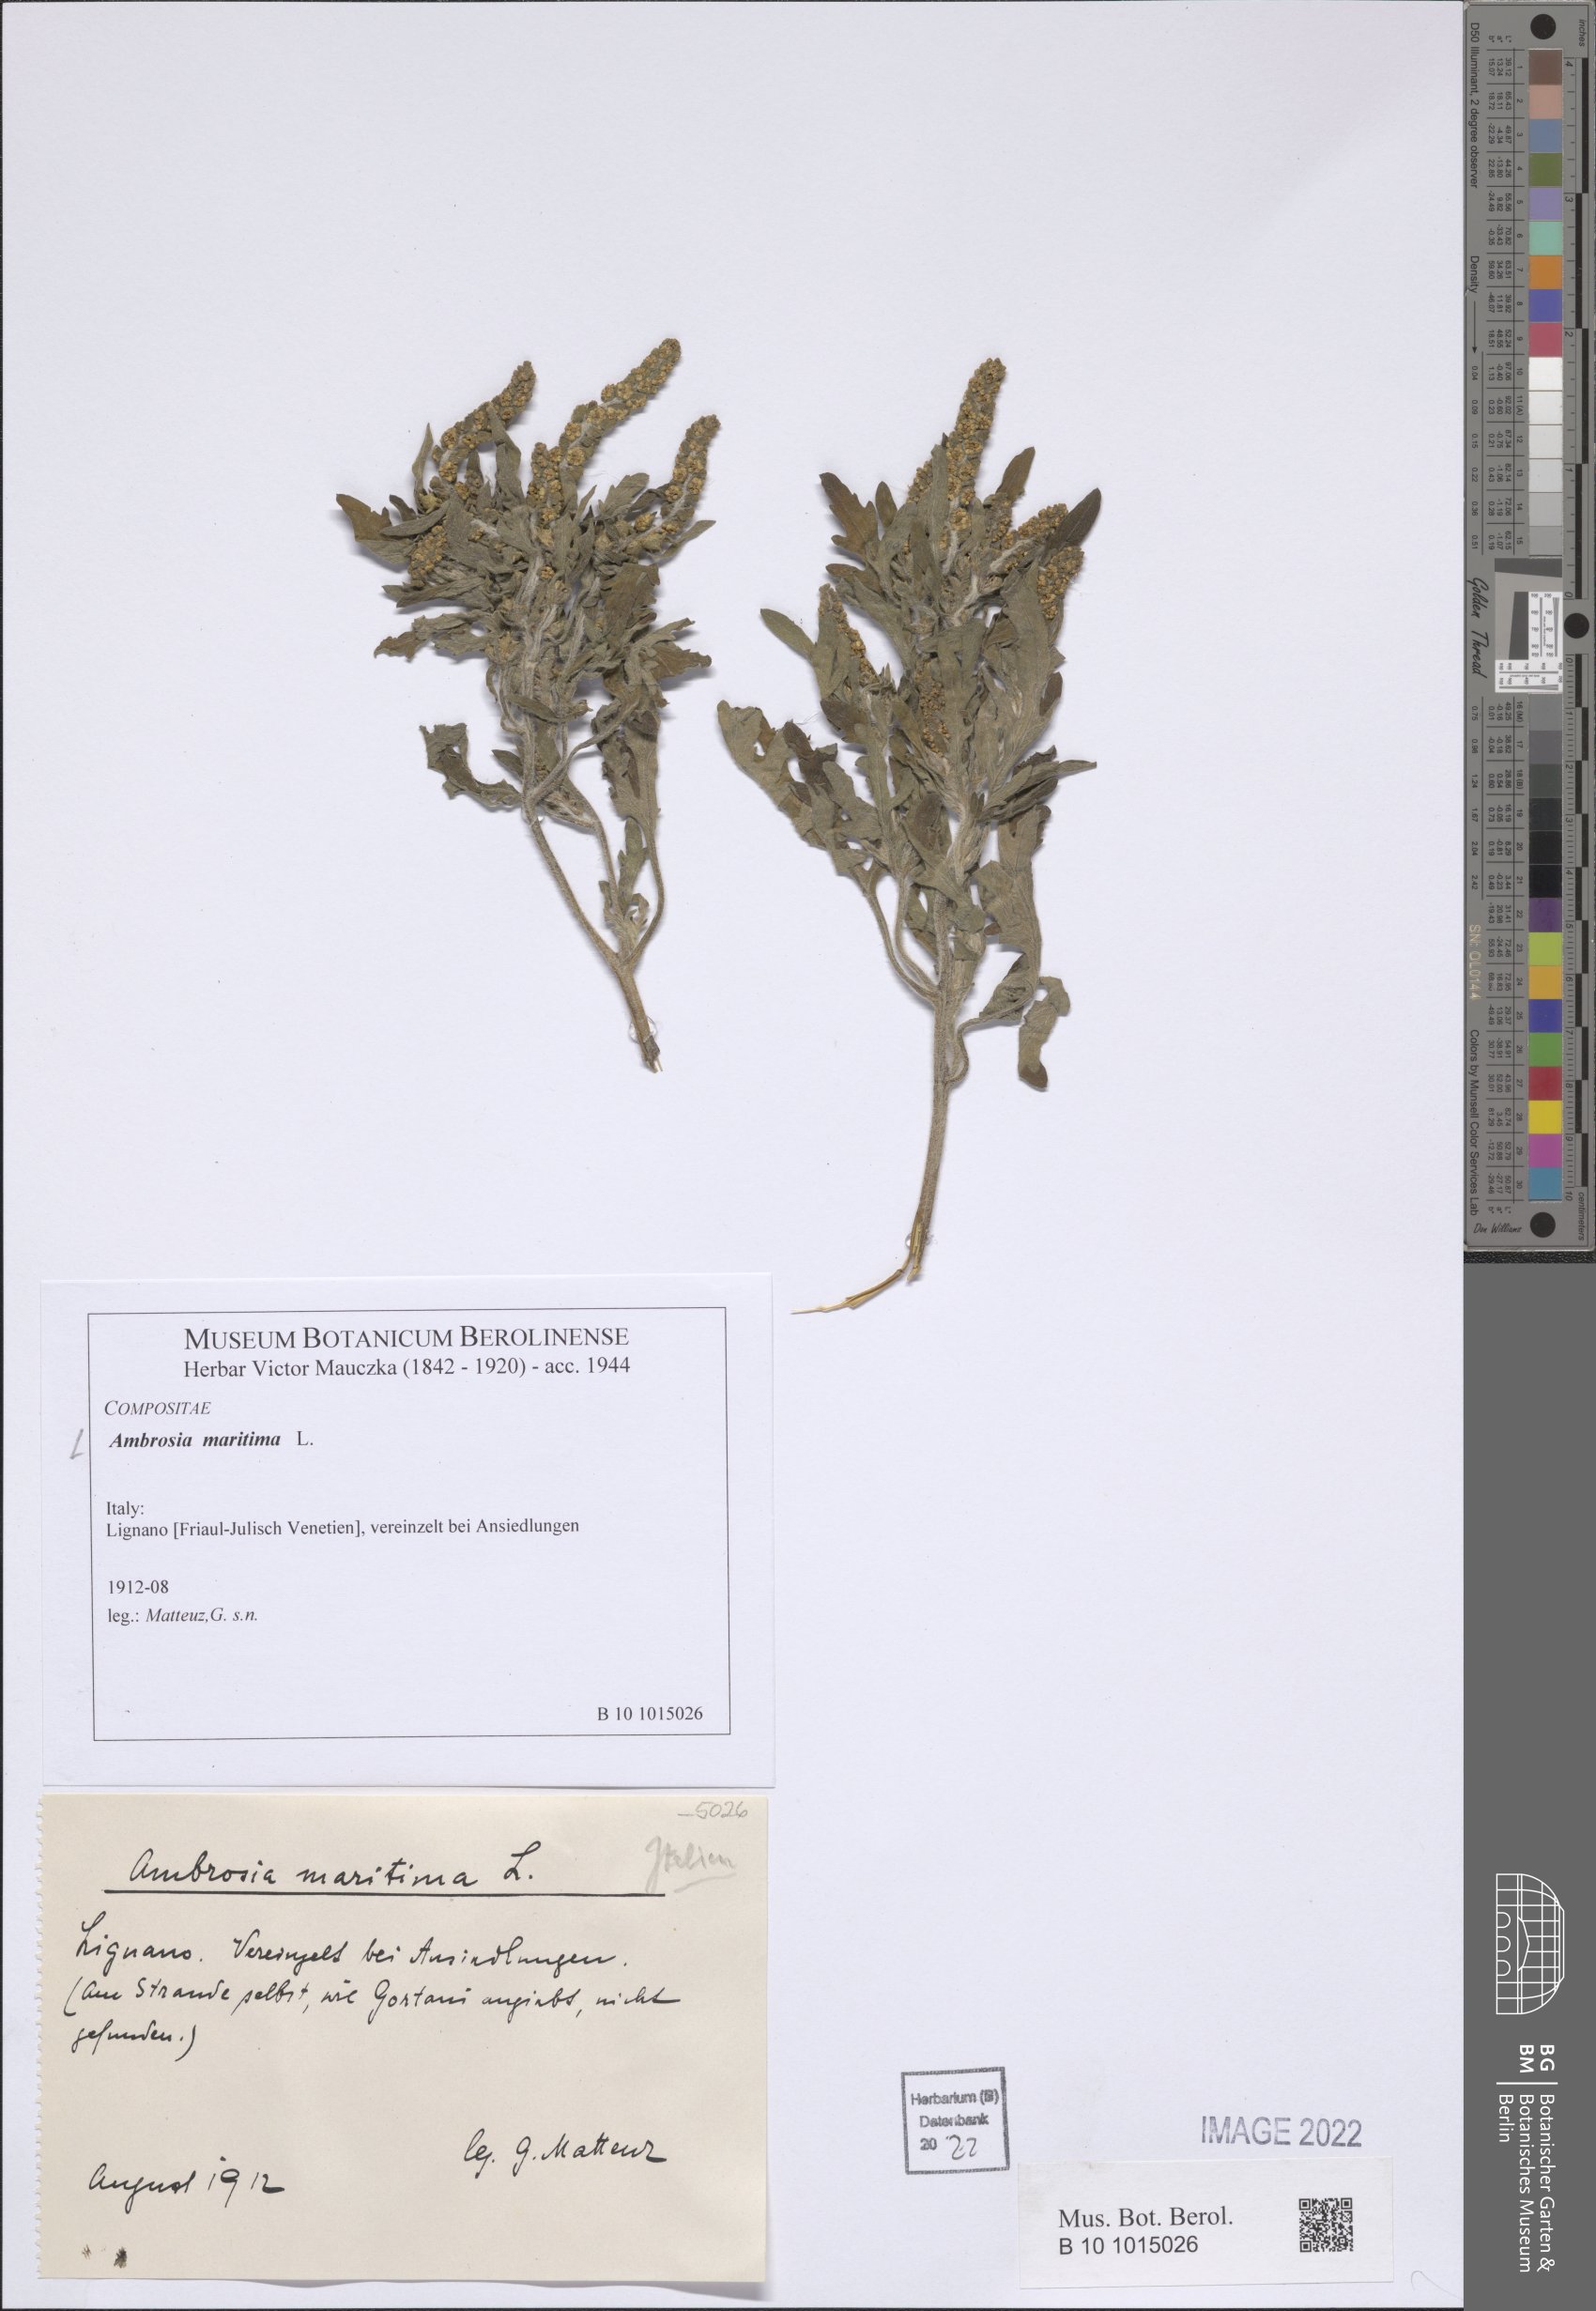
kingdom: Plantae
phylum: Tracheophyta
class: Magnoliopsida
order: Asterales
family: Asteraceae
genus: Ambrosia
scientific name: Ambrosia maritima
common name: Sea ambrosia
